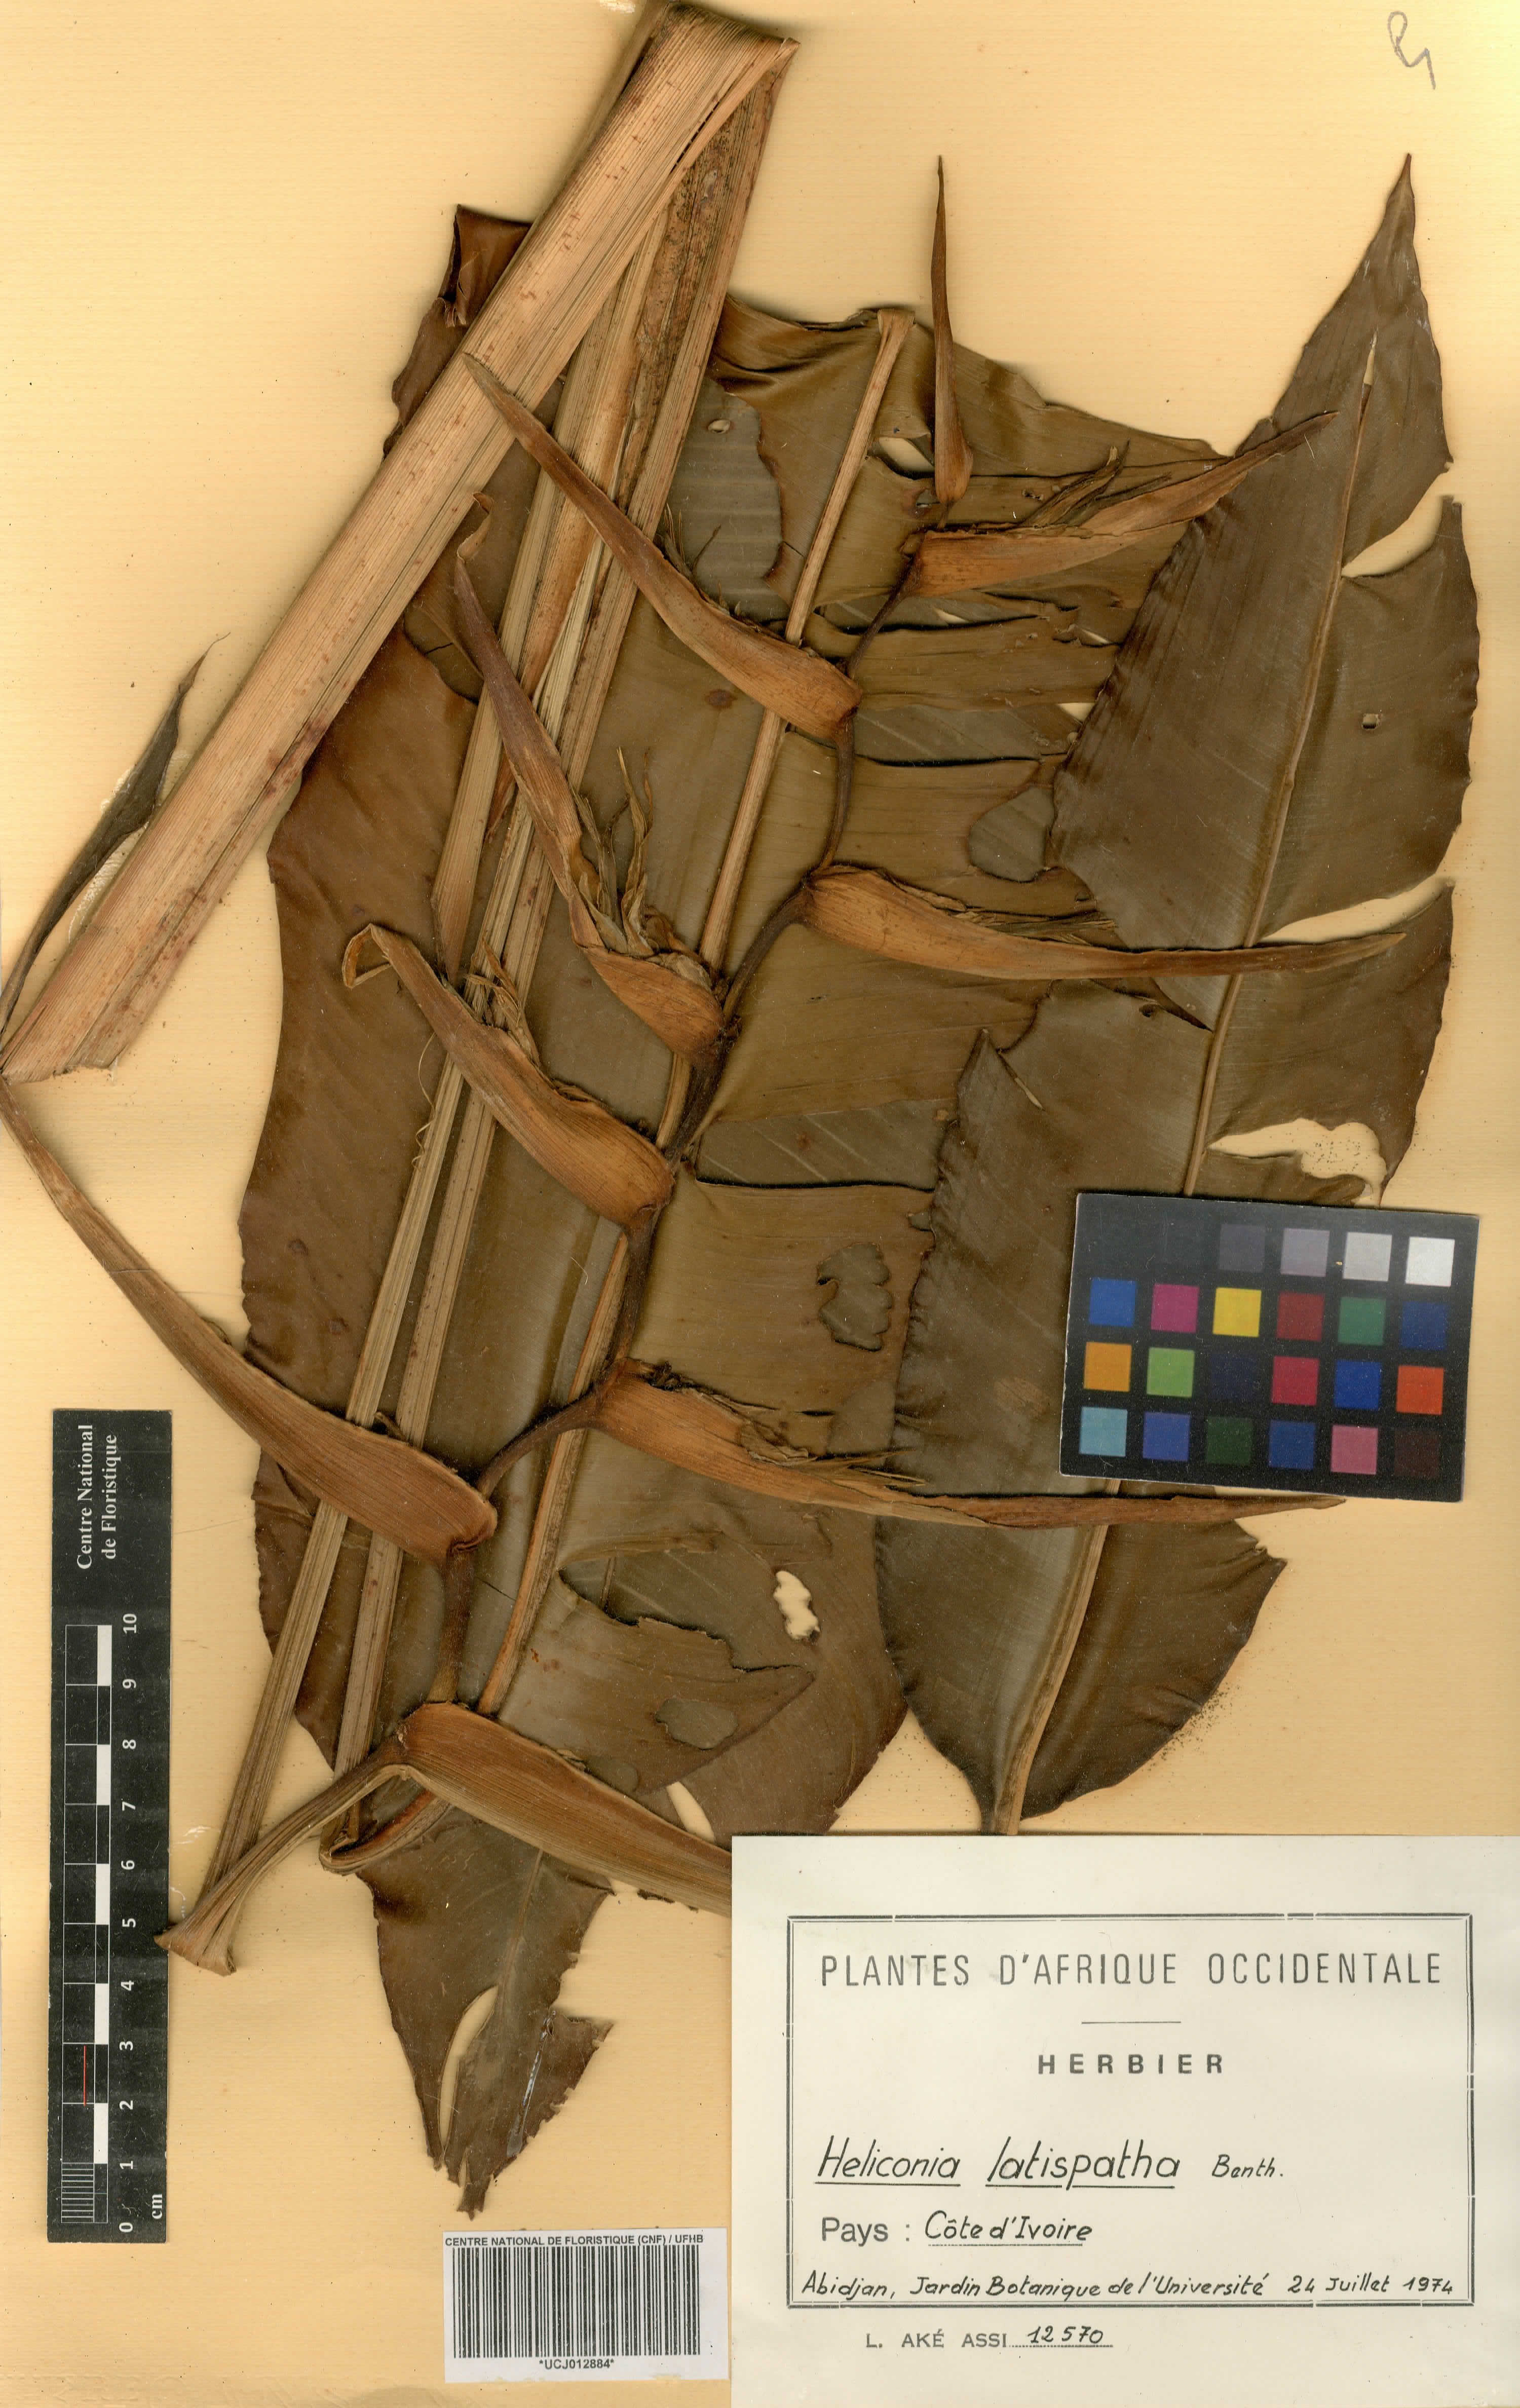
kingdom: Plantae
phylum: Tracheophyta
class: Liliopsida
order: Zingiberales
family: Heliconiaceae
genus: Heliconia
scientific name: Heliconia latispatha
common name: Expanded lobsterclaw
